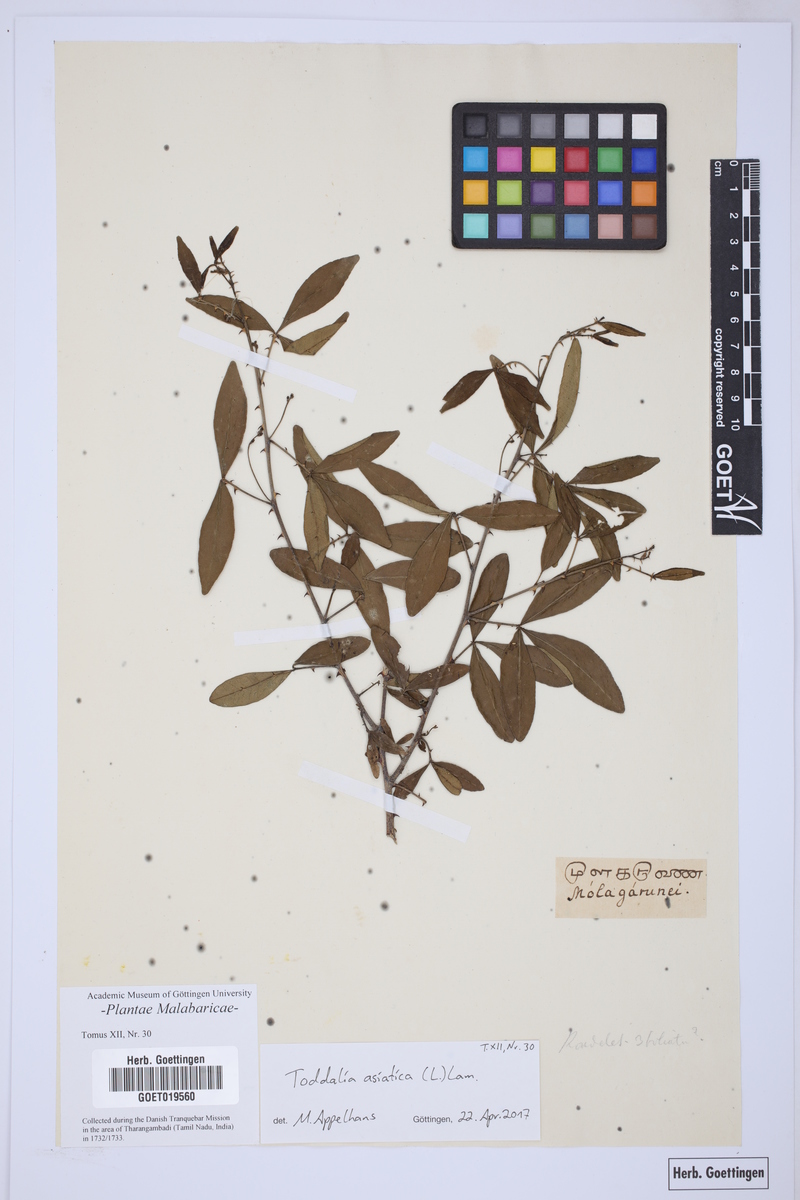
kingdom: Plantae
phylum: Tracheophyta
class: Magnoliopsida
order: Sapindales
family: Rutaceae
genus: Zanthoxylum
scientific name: Zanthoxylum asiaticum
